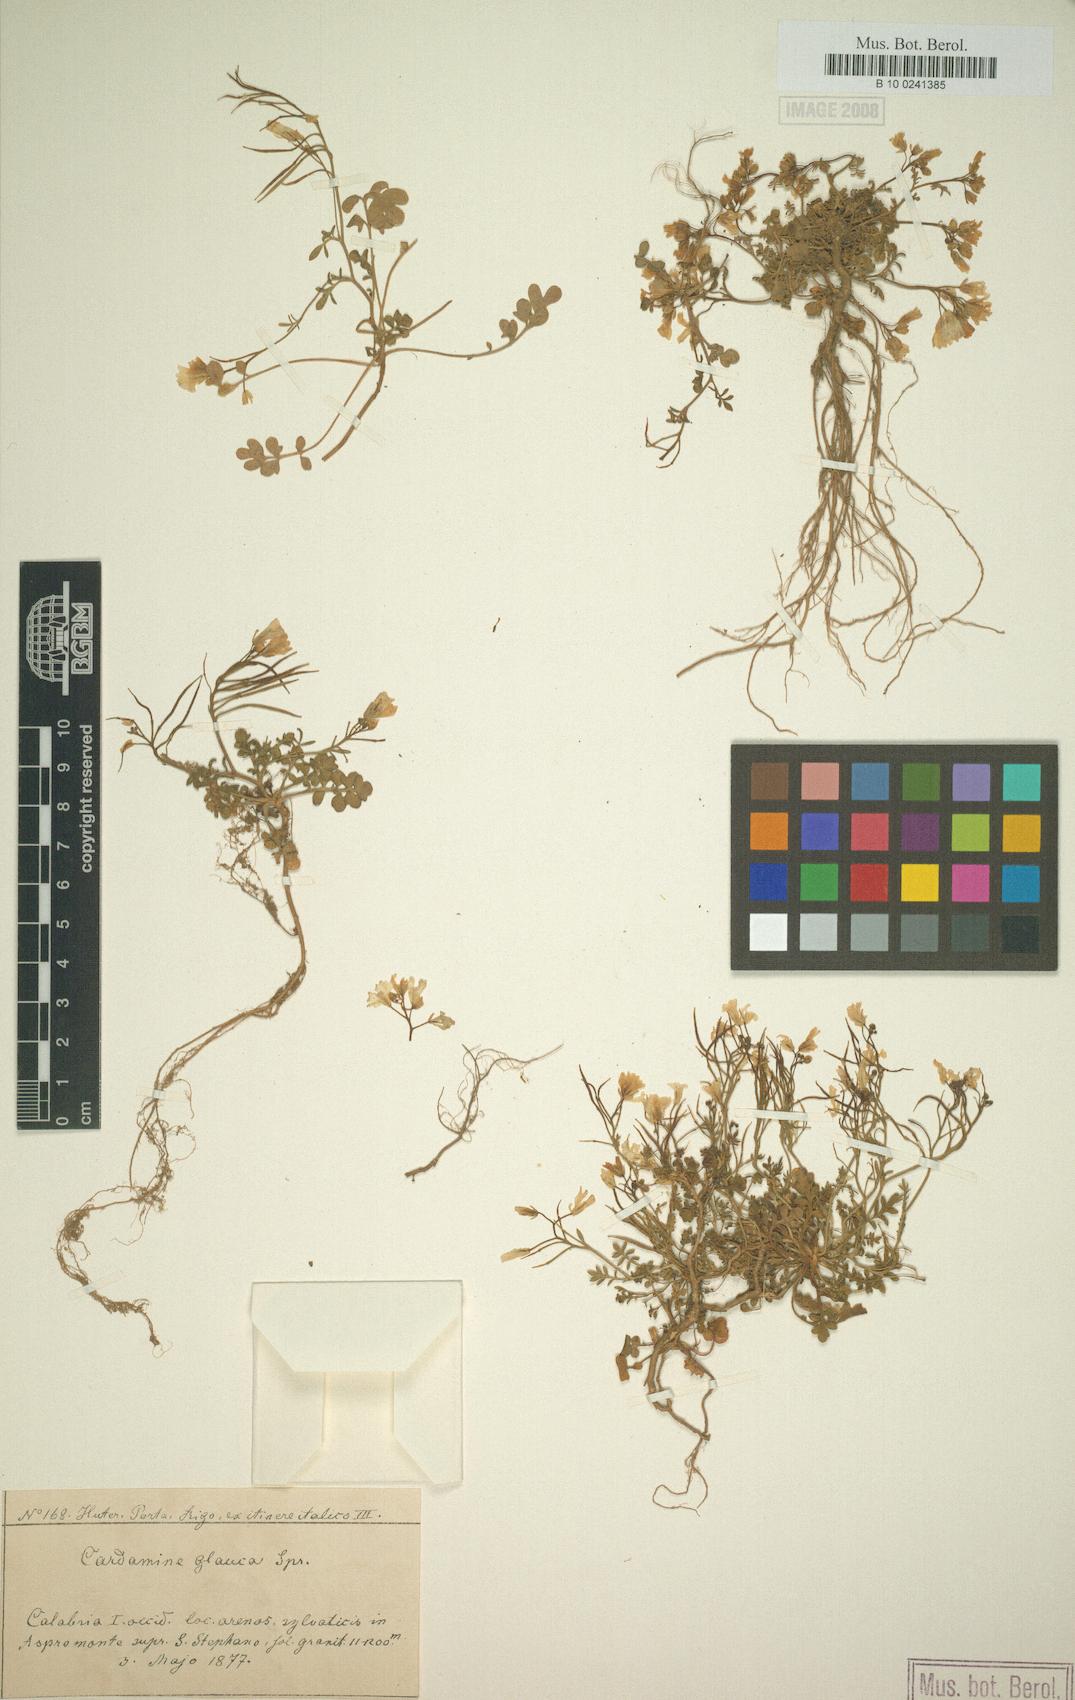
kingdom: Plantae
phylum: Tracheophyta
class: Magnoliopsida
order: Brassicales
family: Brassicaceae
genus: Cardamine
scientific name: Cardamine glauca
